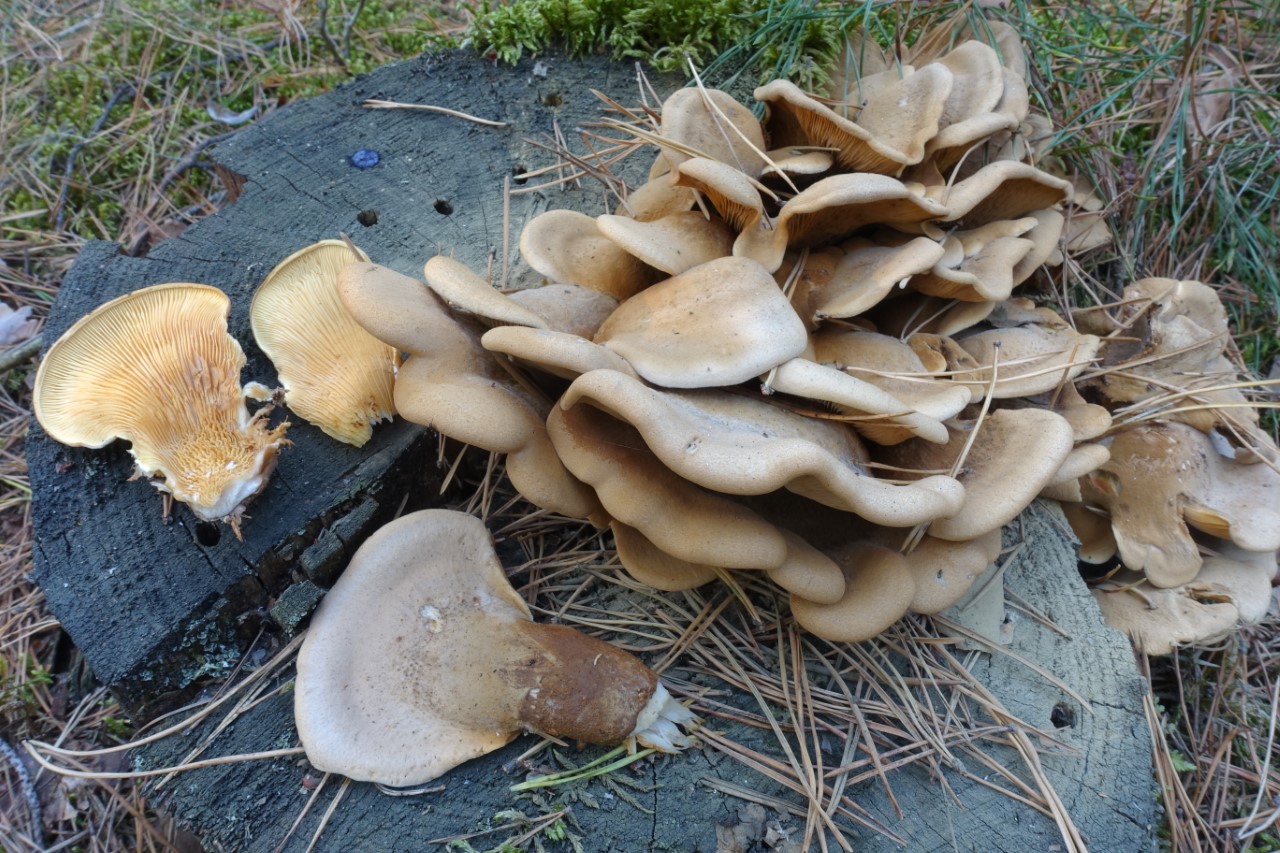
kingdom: Fungi
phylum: Basidiomycota
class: Agaricomycetes
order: Boletales
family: Tapinellaceae
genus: Tapinella
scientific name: Tapinella panuoides
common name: tømmer-viftesvamp
